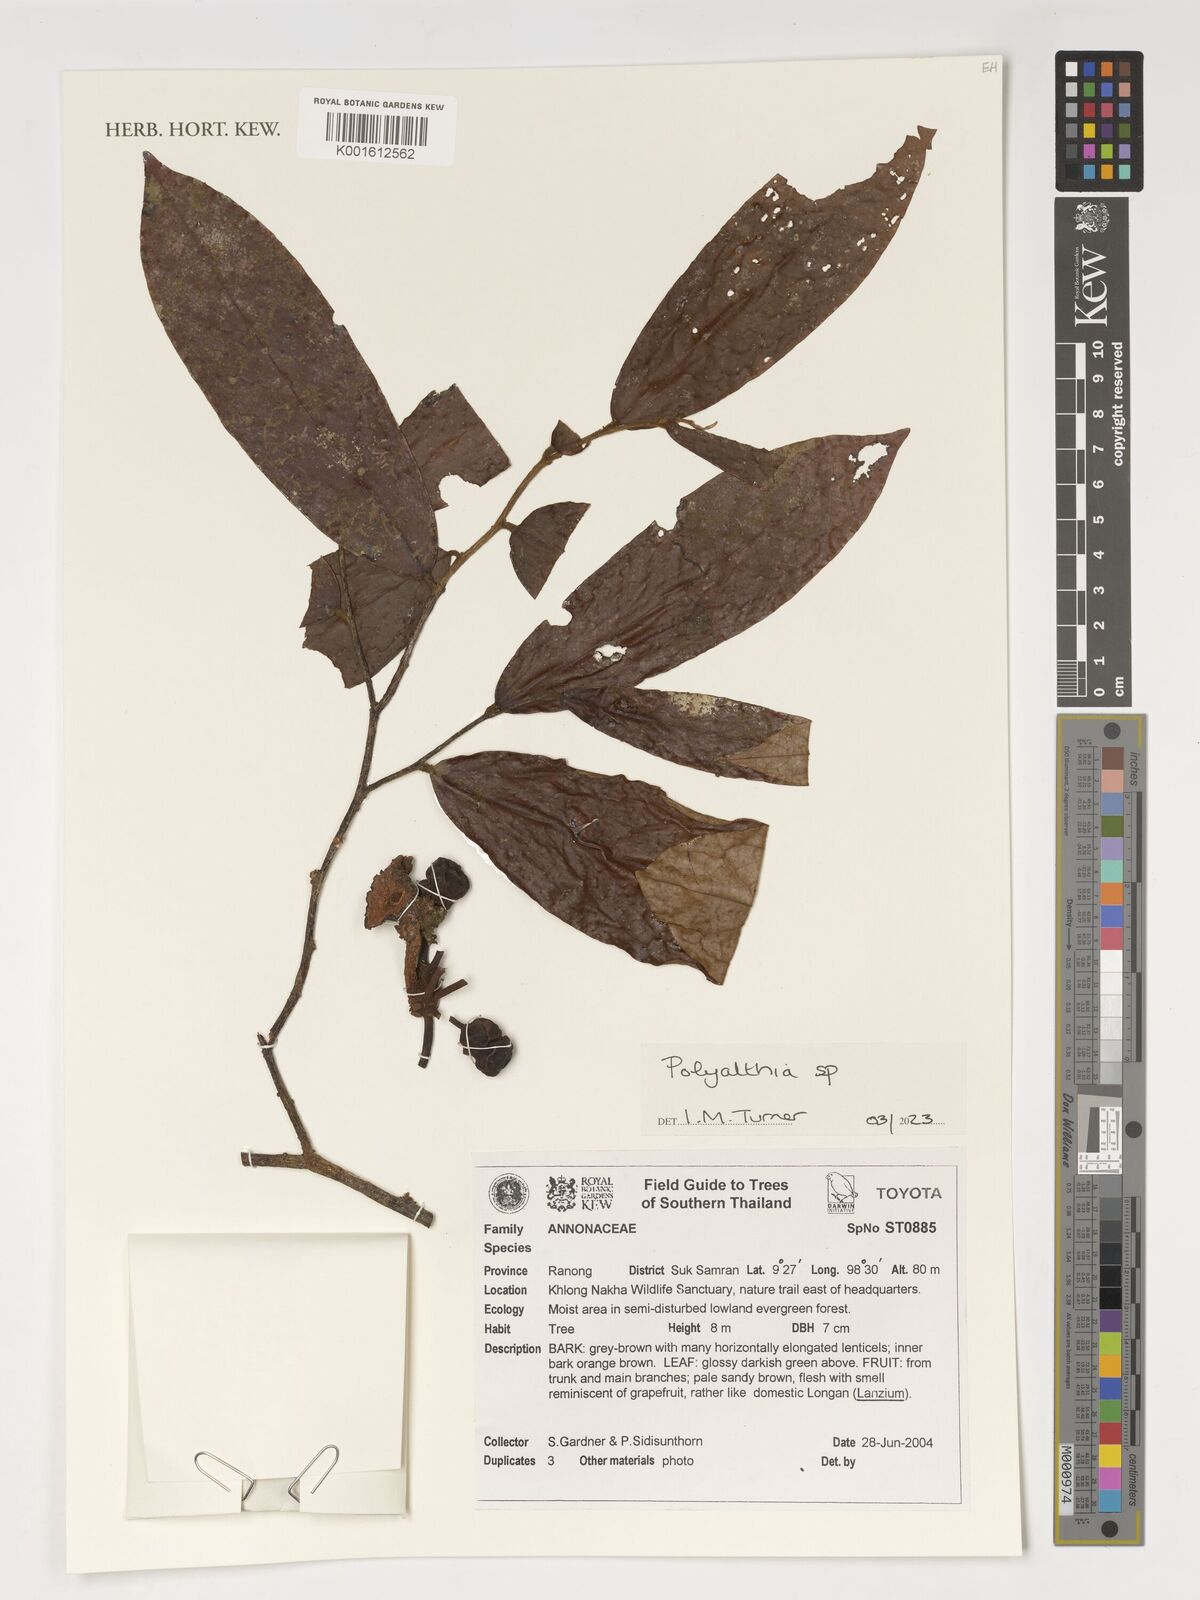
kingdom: Plantae
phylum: Tracheophyta
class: Magnoliopsida
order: Magnoliales
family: Annonaceae
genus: Polyalthia
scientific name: Polyalthia
